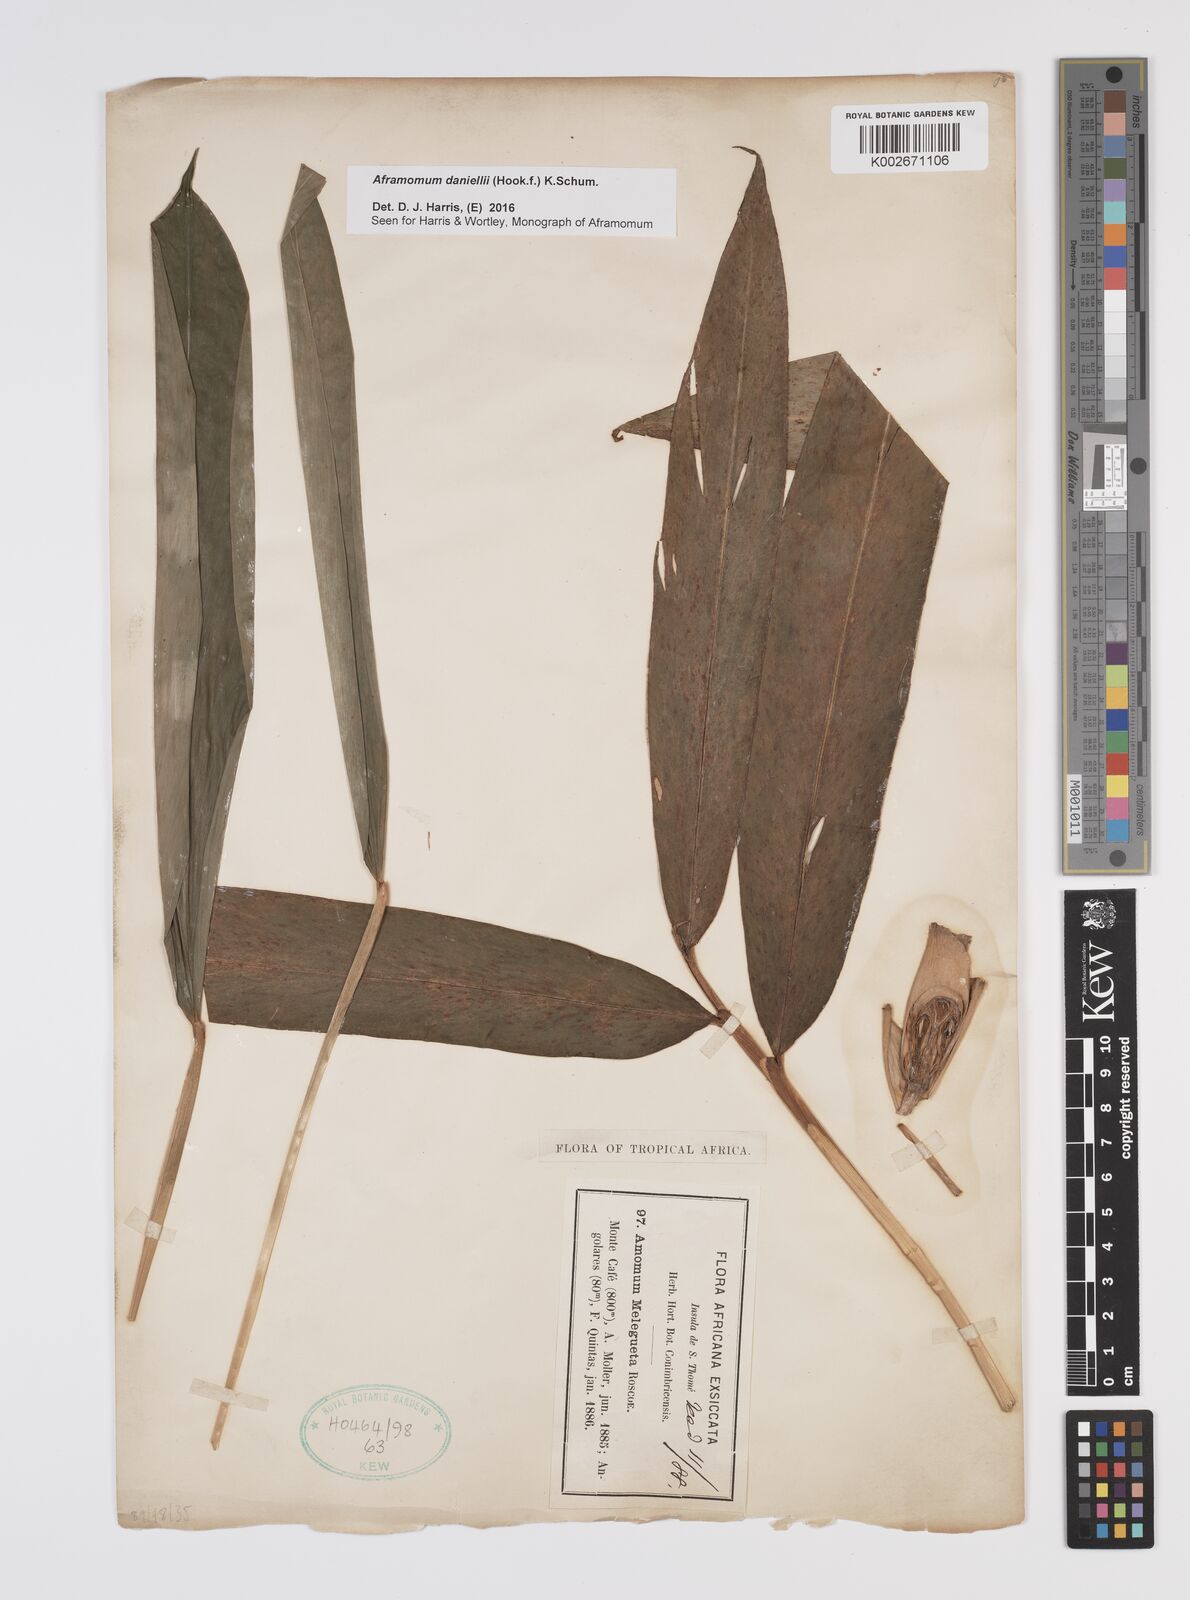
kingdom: Plantae
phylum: Tracheophyta
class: Liliopsida
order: Zingiberales
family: Zingiberaceae
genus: Aframomum
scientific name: Aframomum daniellii
